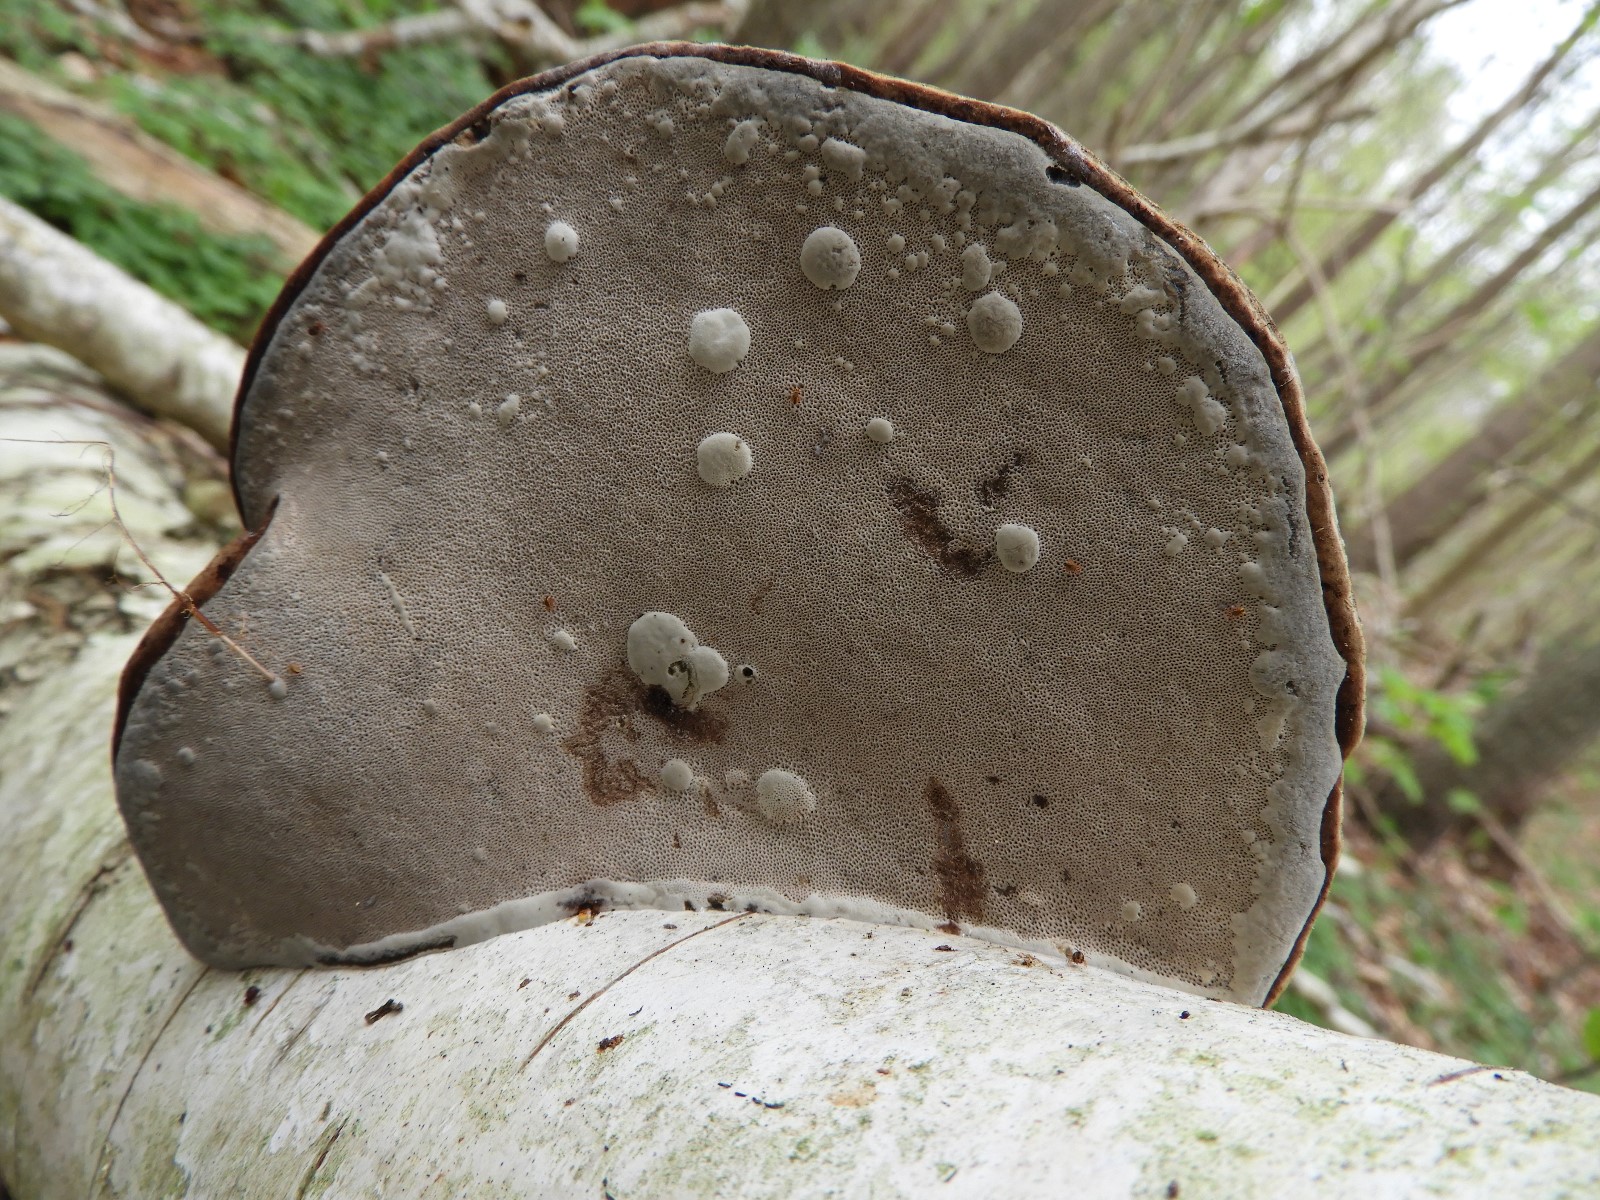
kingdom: Fungi
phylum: Basidiomycota
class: Agaricomycetes
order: Polyporales
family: Fomitopsidaceae
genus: Fomitopsis
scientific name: Fomitopsis pinicola
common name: randbæltet hovporesvamp
